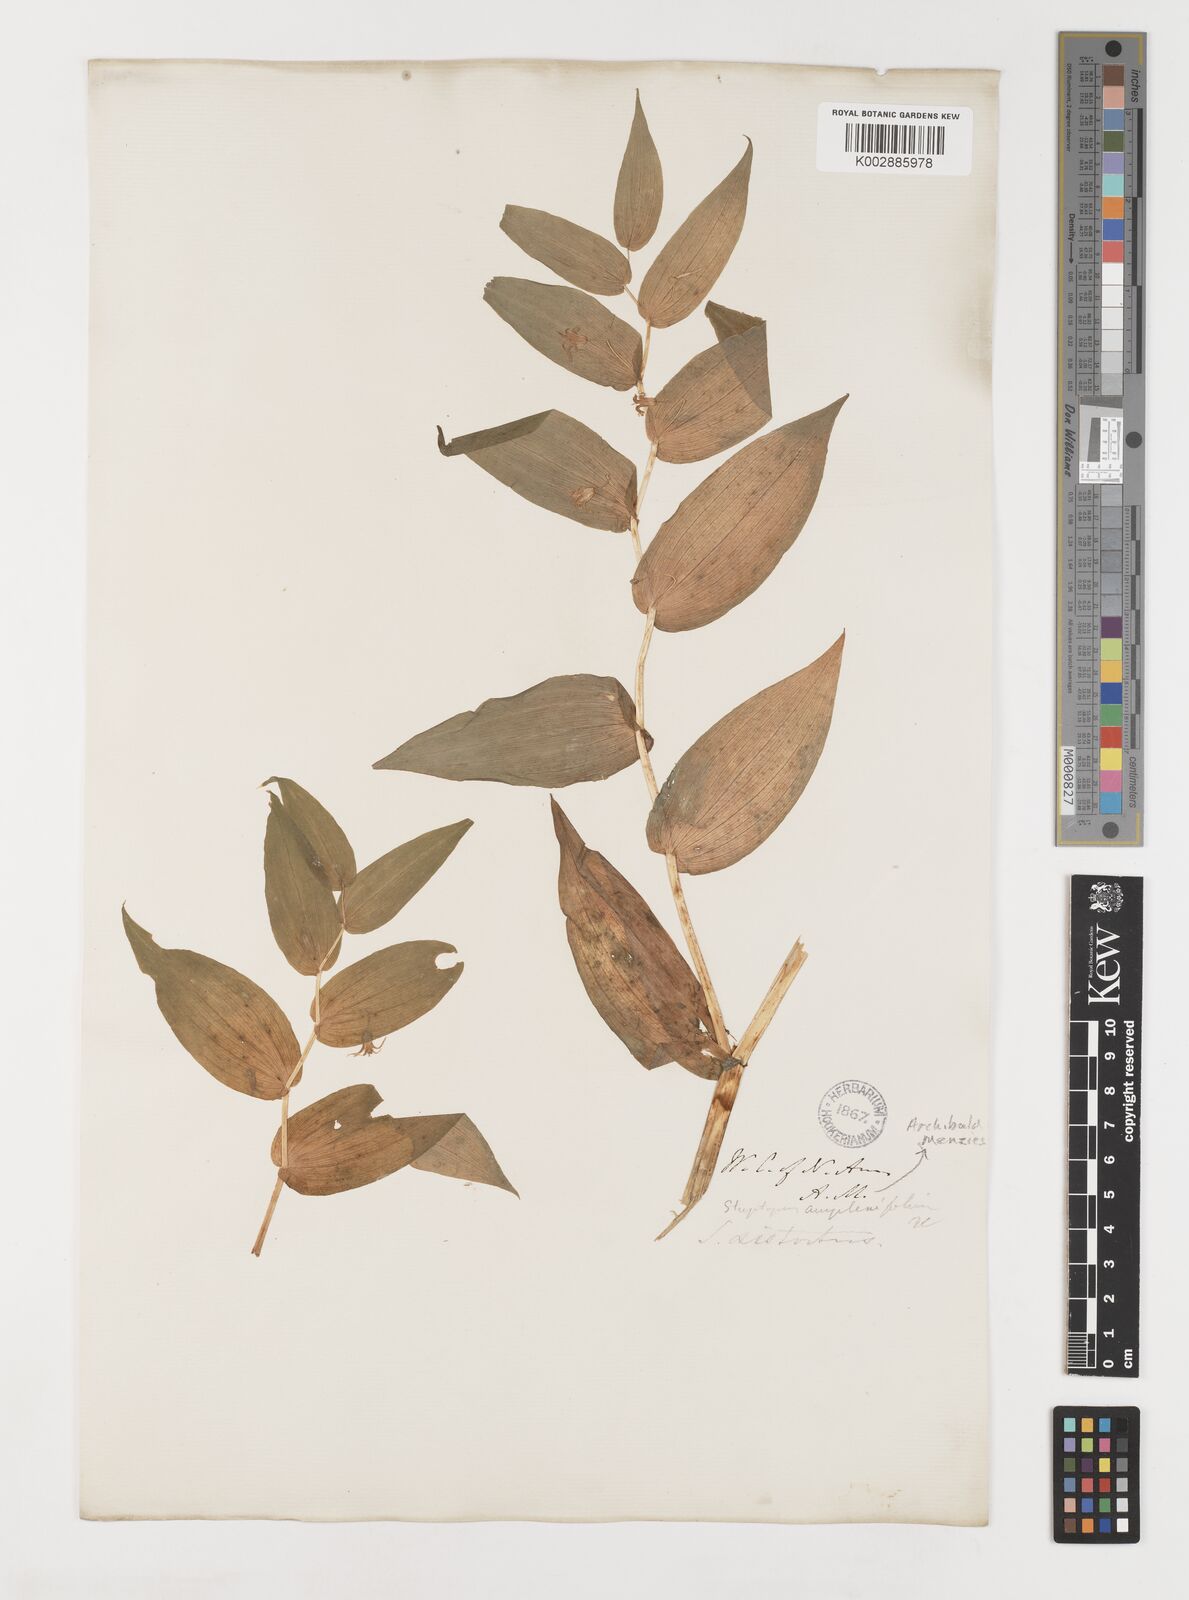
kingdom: Plantae
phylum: Tracheophyta
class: Liliopsida
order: Liliales
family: Liliaceae
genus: Streptopus
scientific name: Streptopus amplexifolius
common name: Clasp twisted stalk
